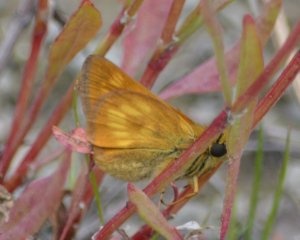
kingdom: Animalia
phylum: Arthropoda
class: Insecta
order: Lepidoptera
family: Hesperiidae
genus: Polites
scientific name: Polites
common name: Long Dash Skipper
